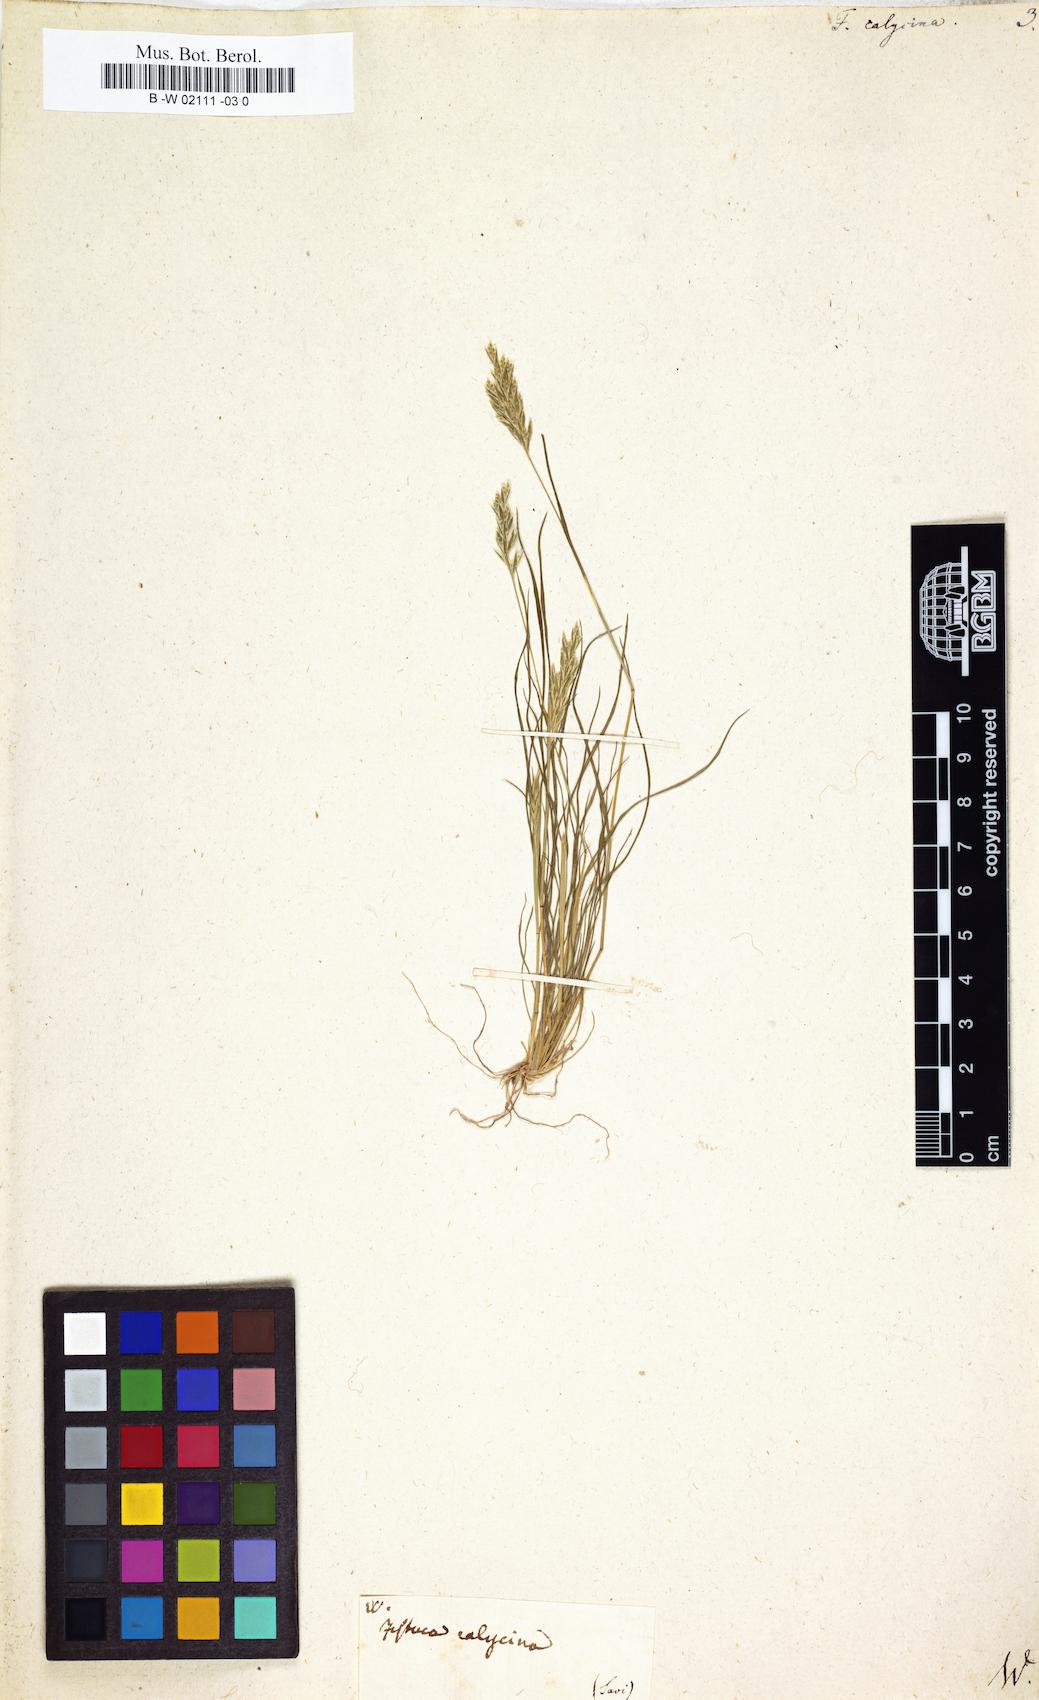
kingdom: Plantae
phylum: Tracheophyta
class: Liliopsida
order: Poales
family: Poaceae
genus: Schismus
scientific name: Schismus barbatus
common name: Kelch-grass
